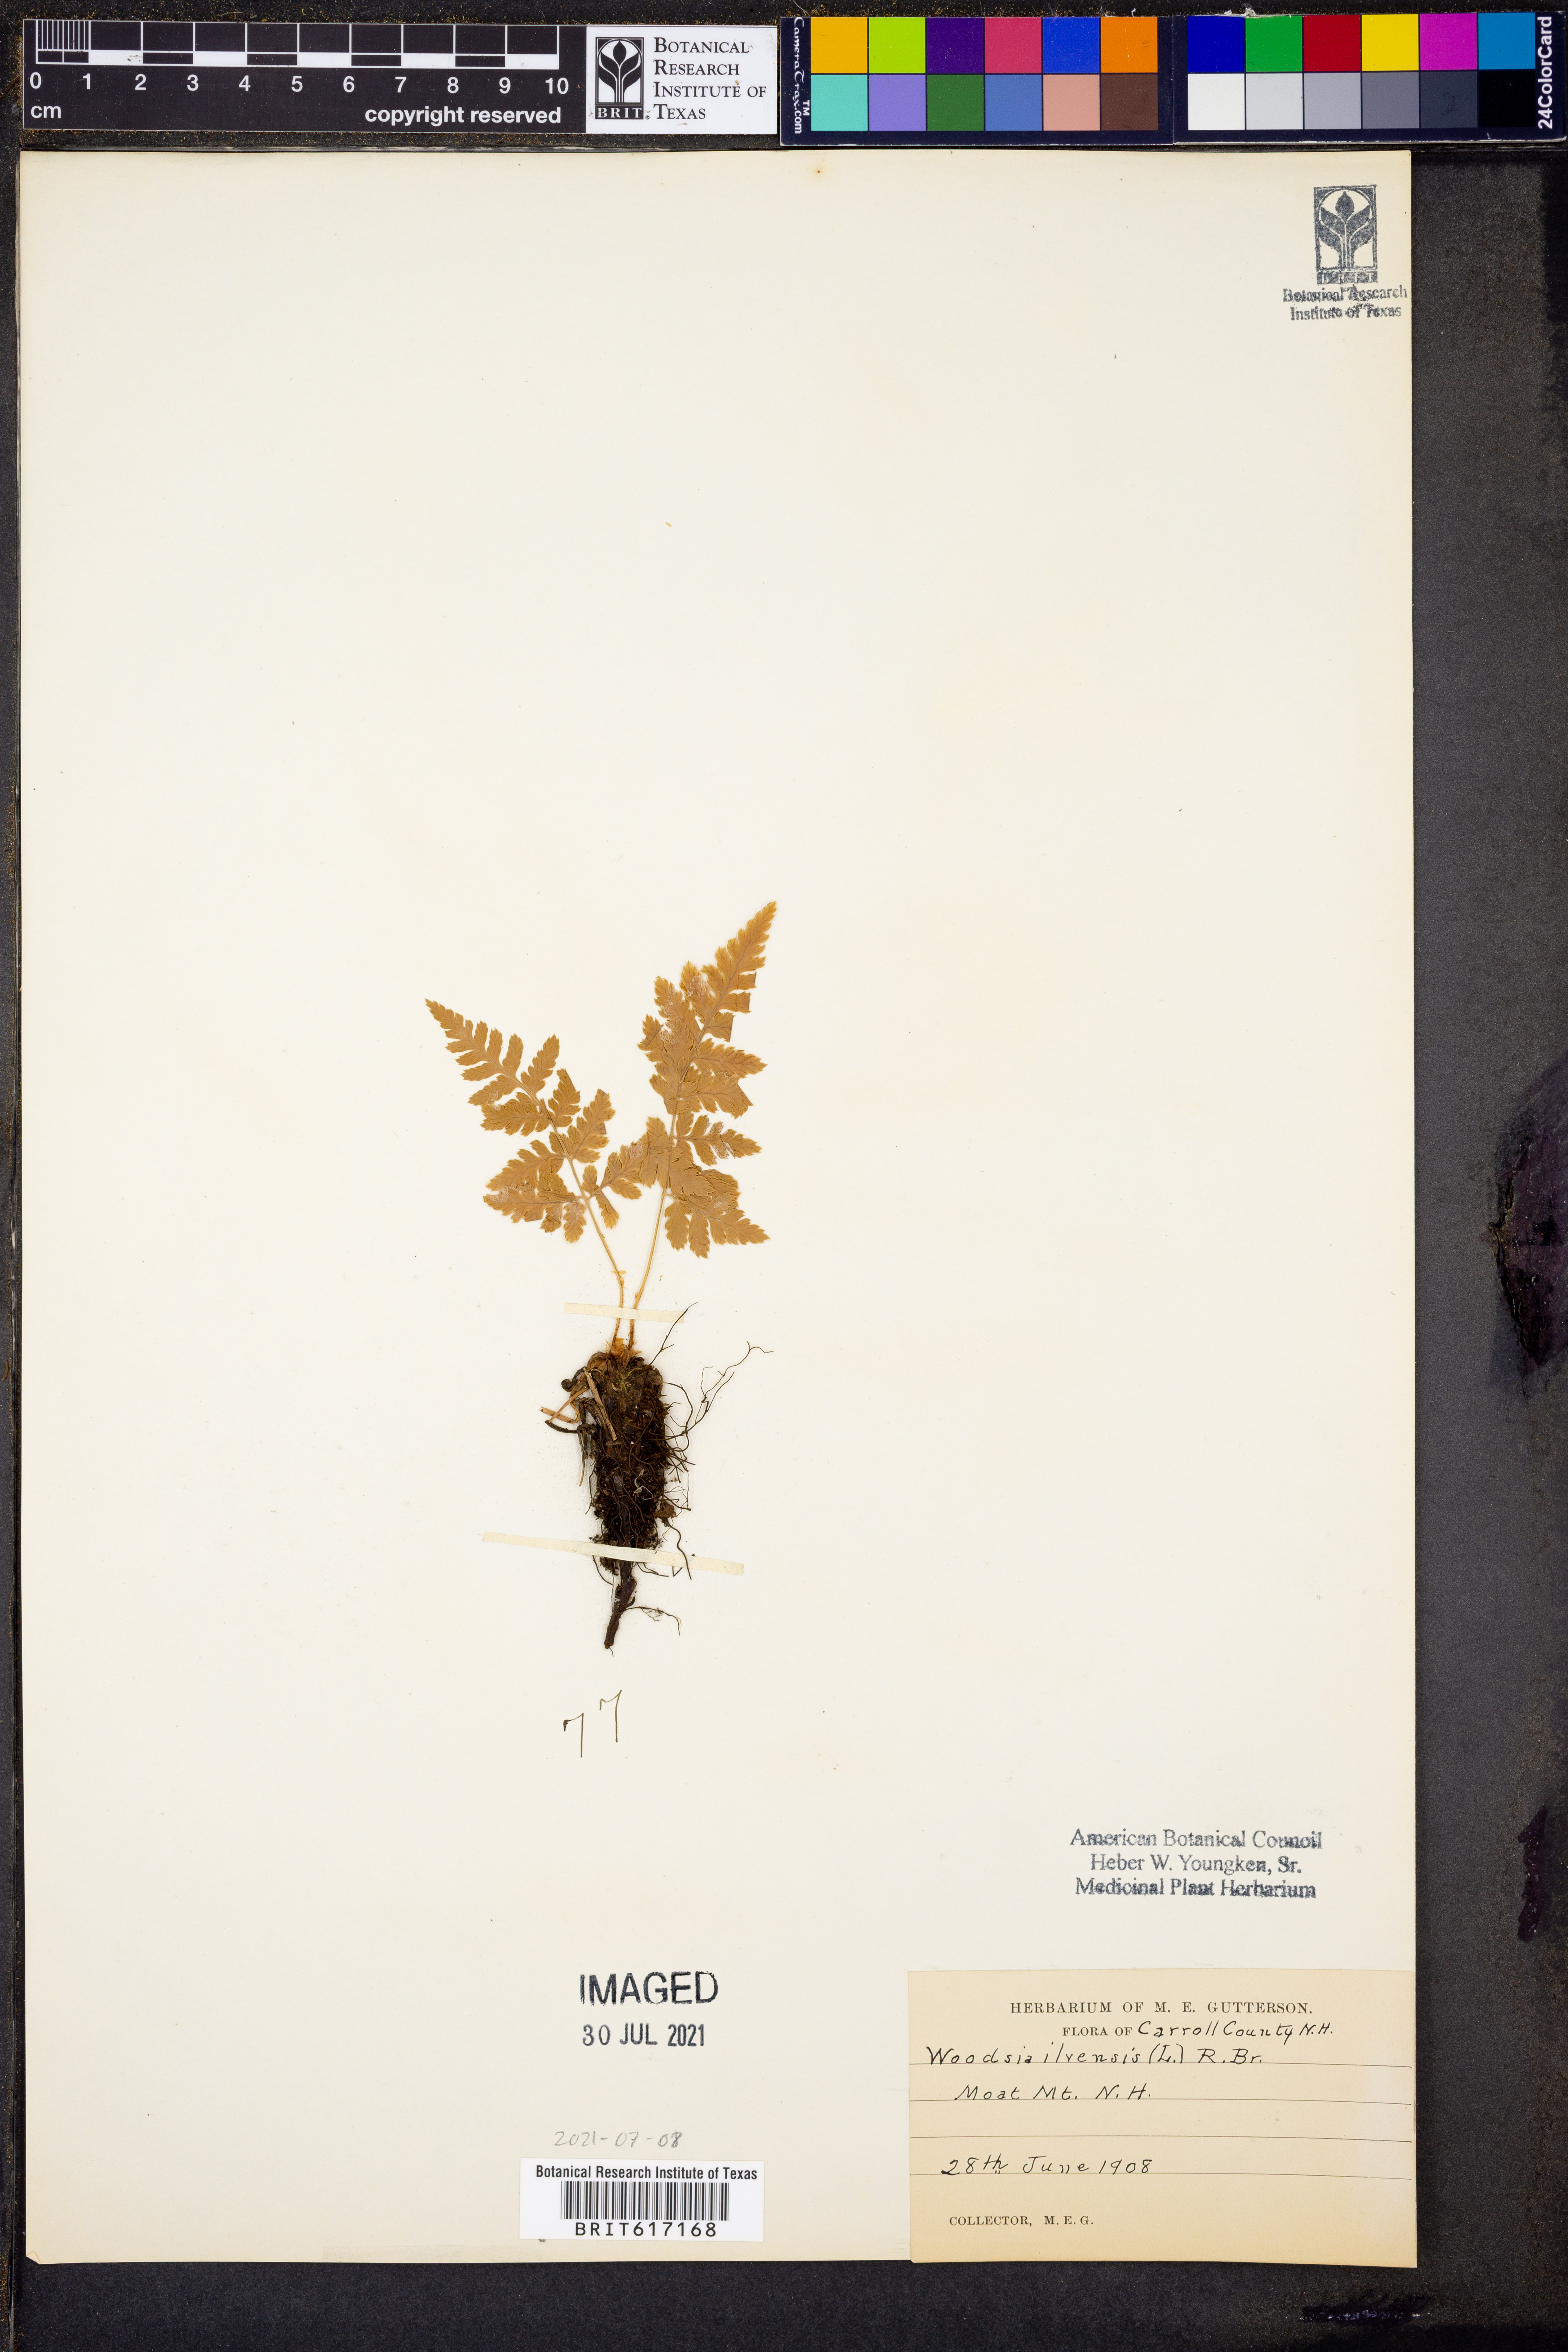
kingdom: Plantae
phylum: Tracheophyta
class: Polypodiopsida
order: Polypodiales
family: Woodsiaceae
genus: Woodsia
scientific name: Woodsia ilvensis
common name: Fragrant woodsia
